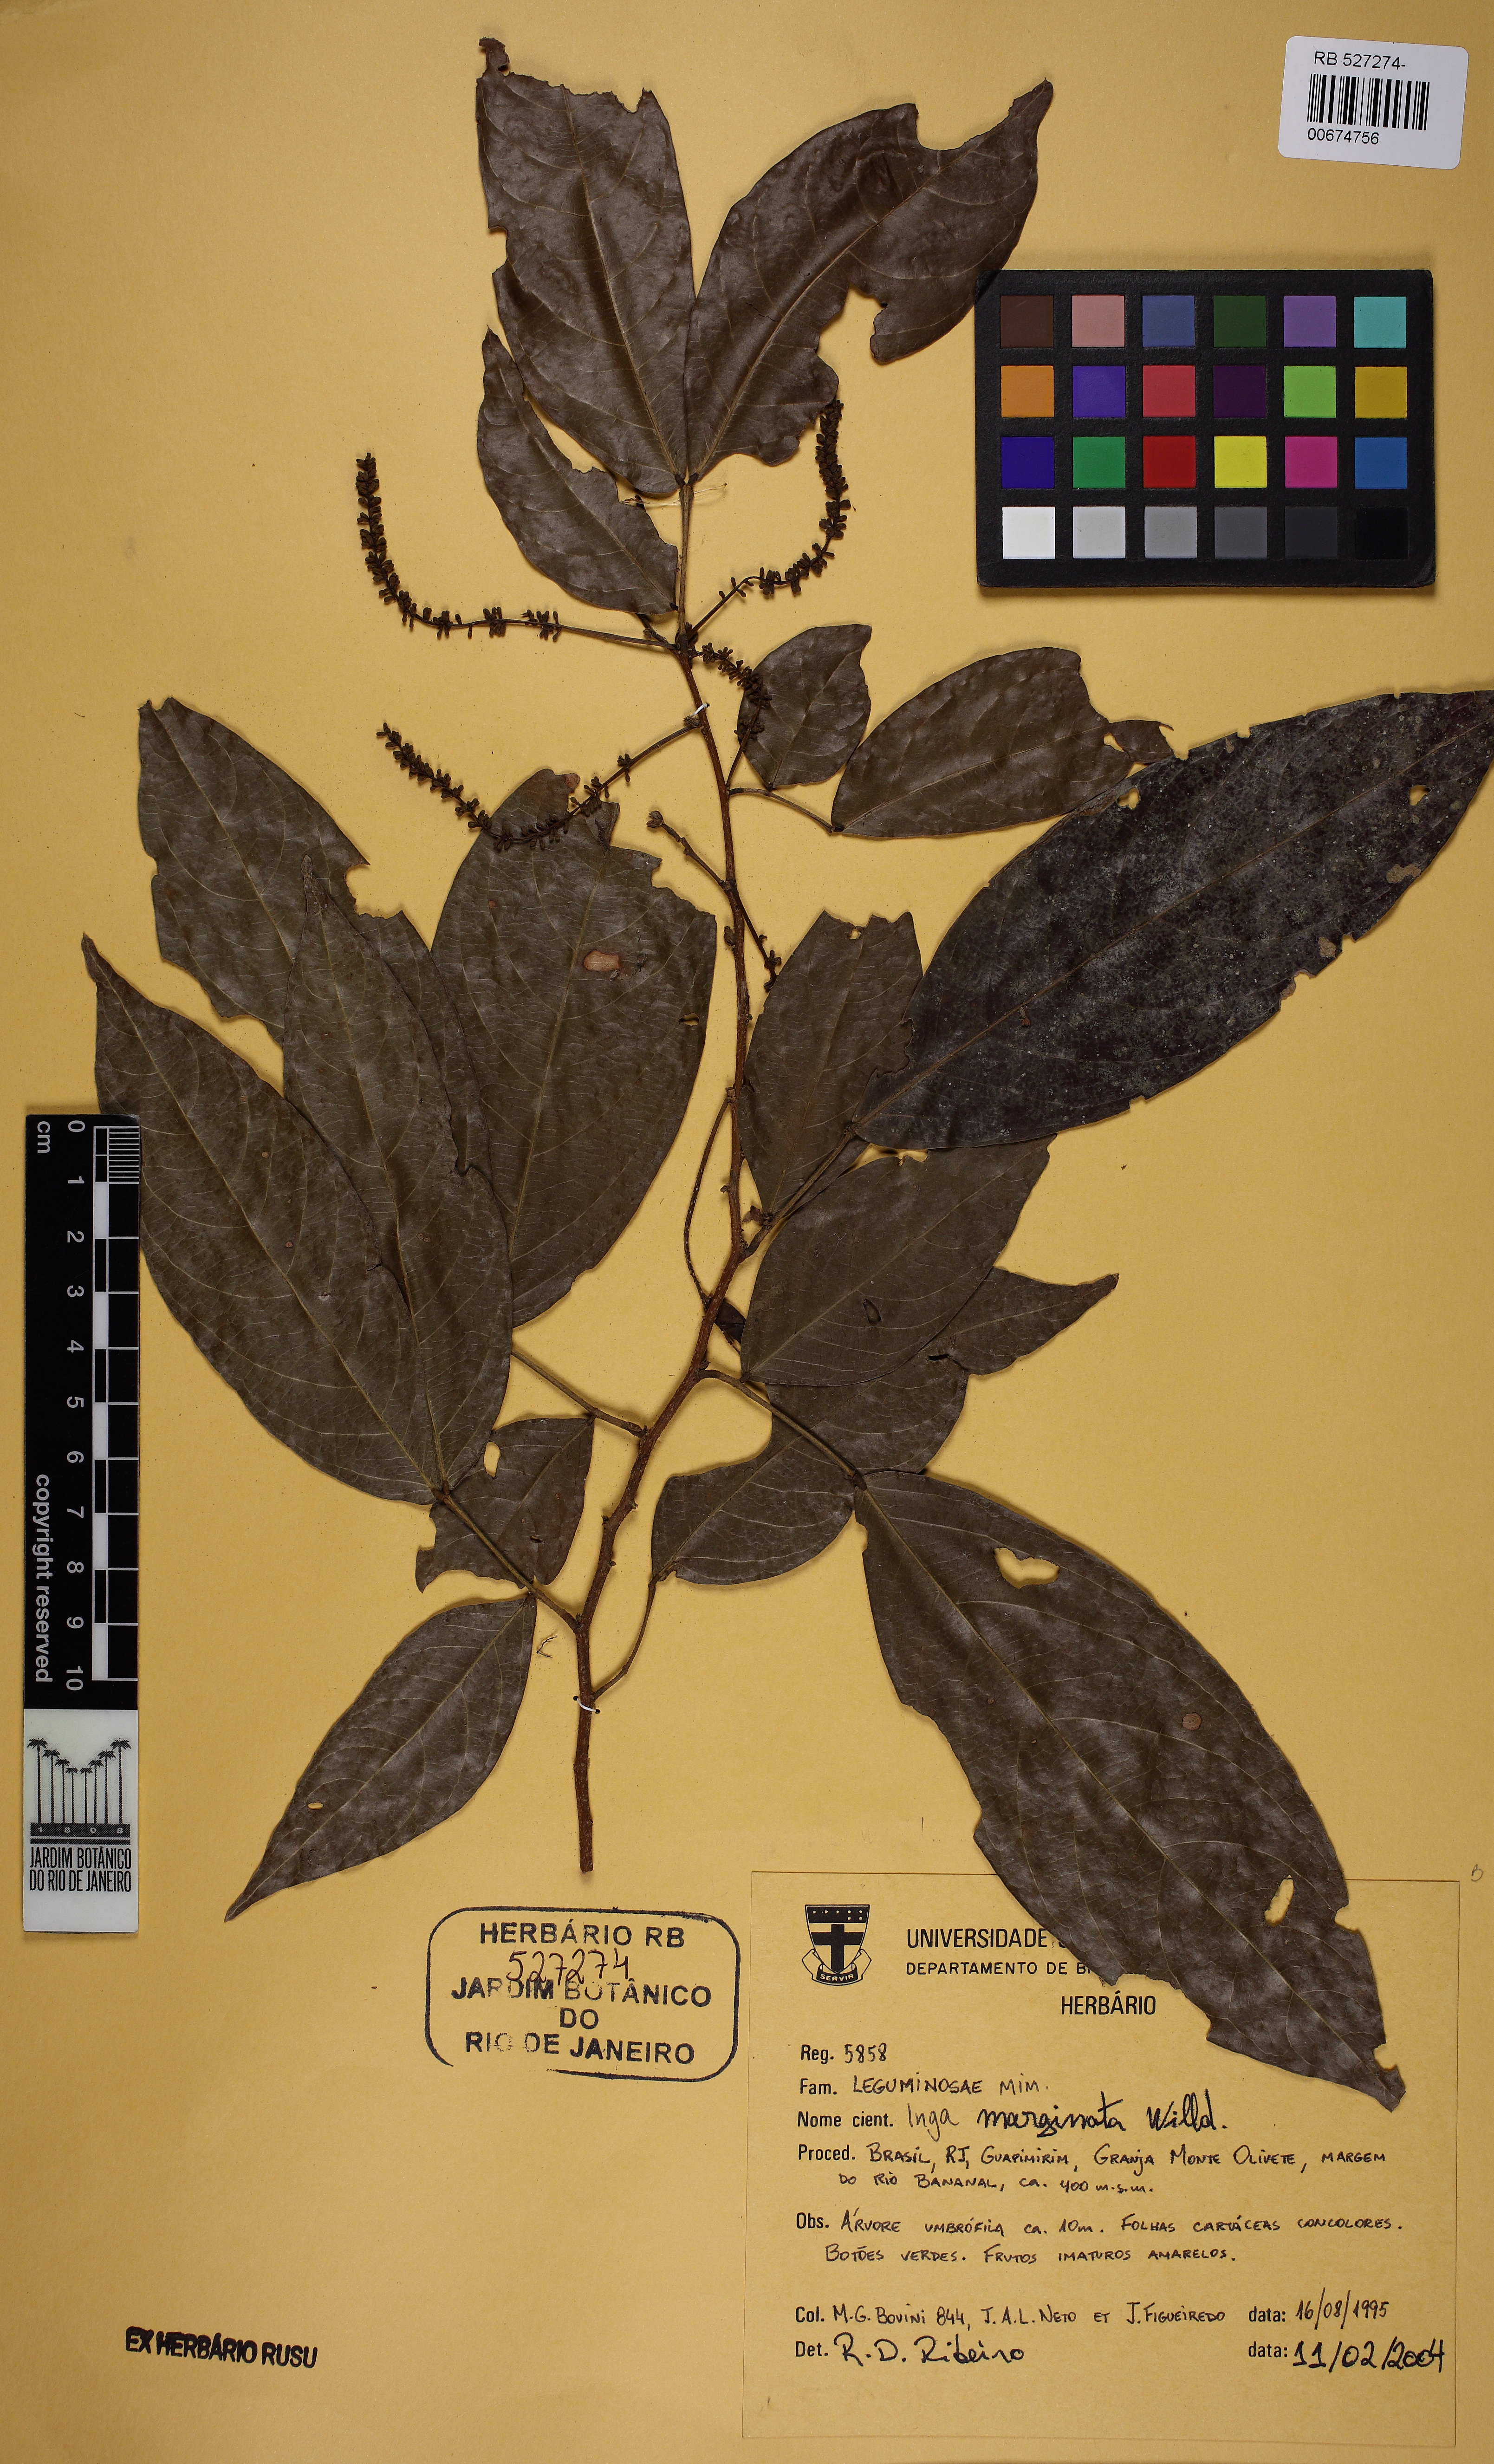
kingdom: Plantae
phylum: Tracheophyta
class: Magnoliopsida
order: Fabales
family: Fabaceae
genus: Inga
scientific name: Inga marginata
